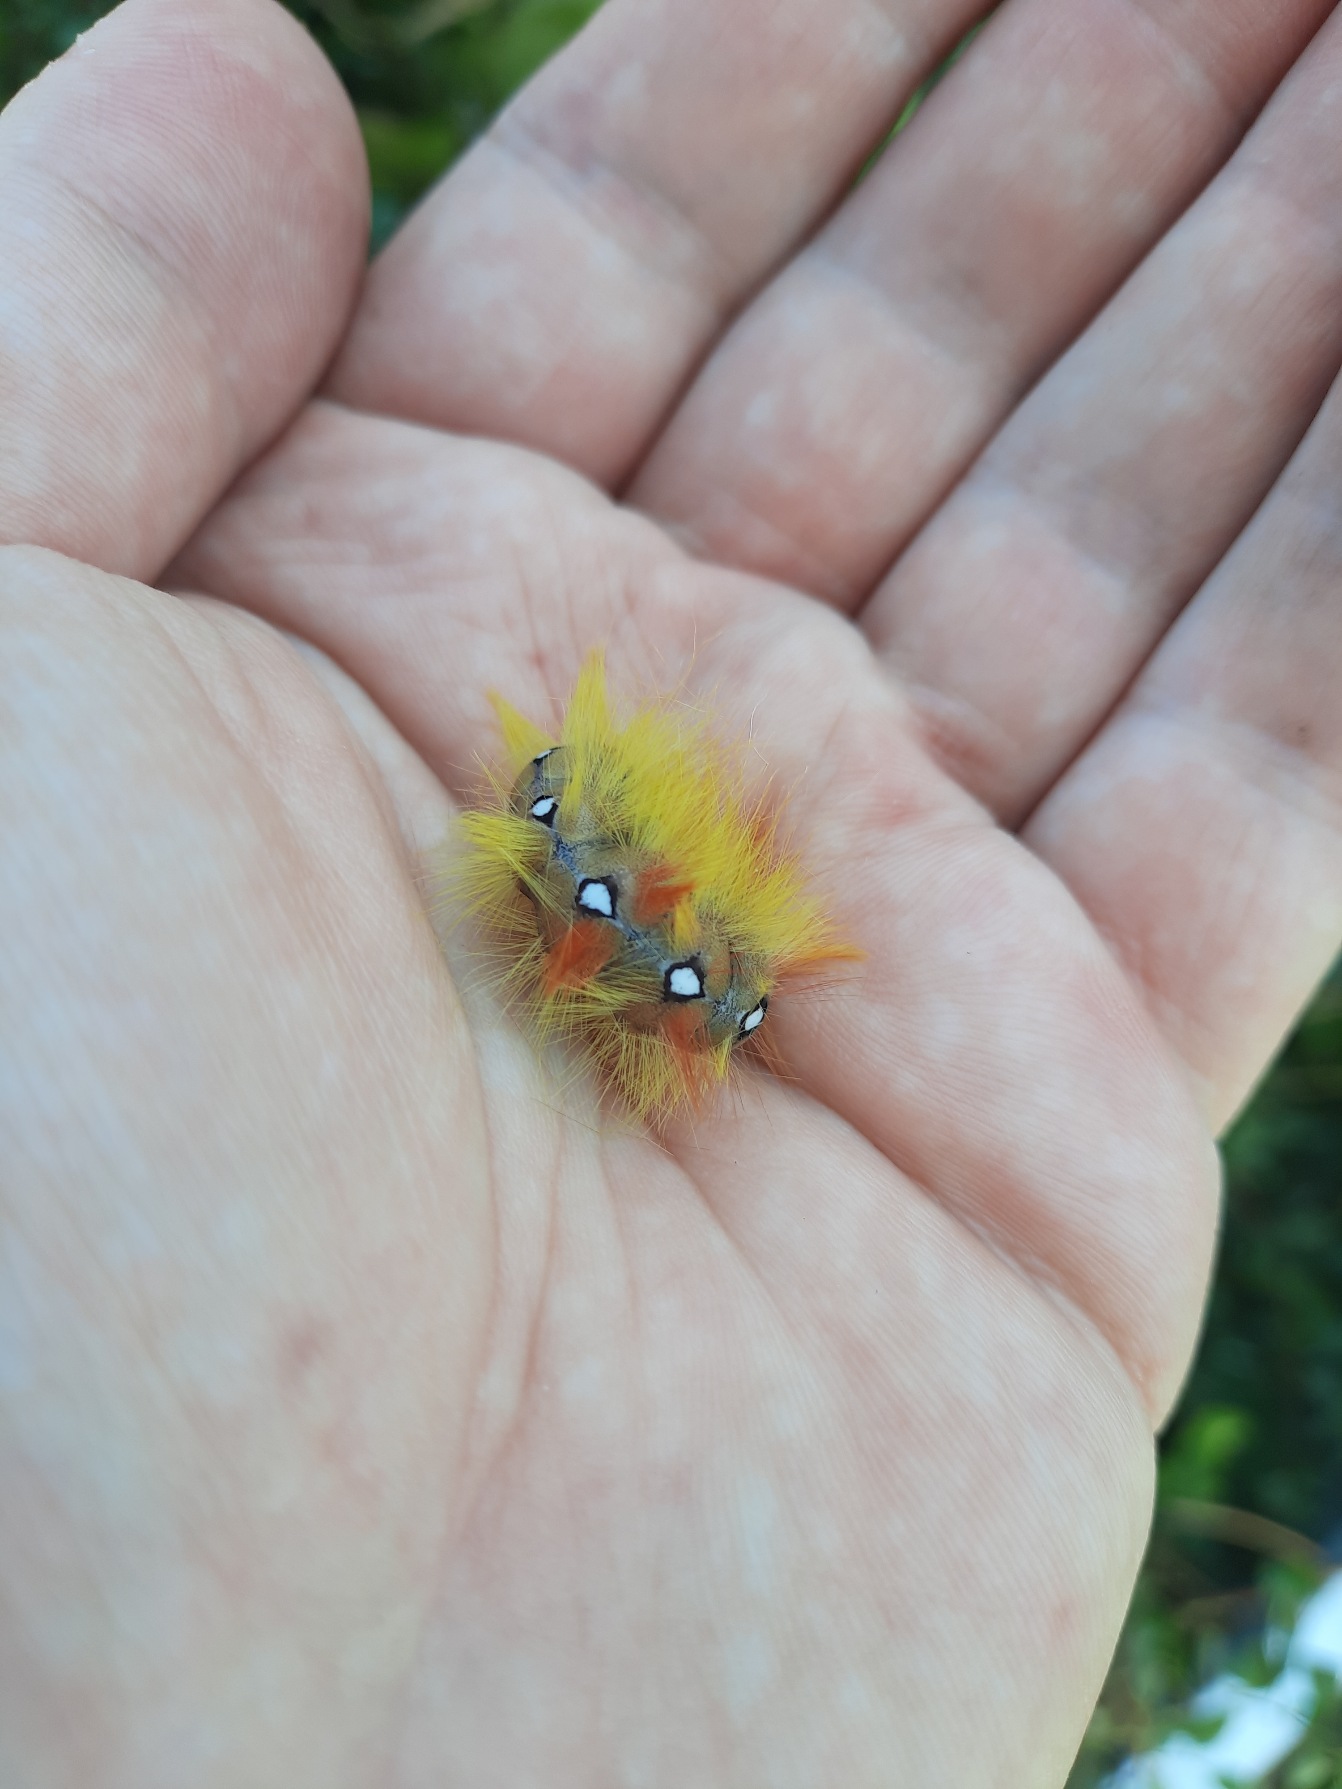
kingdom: Animalia
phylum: Arthropoda
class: Insecta
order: Lepidoptera
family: Noctuidae
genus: Acronicta
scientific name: Acronicta aceris
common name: Ahornugle
